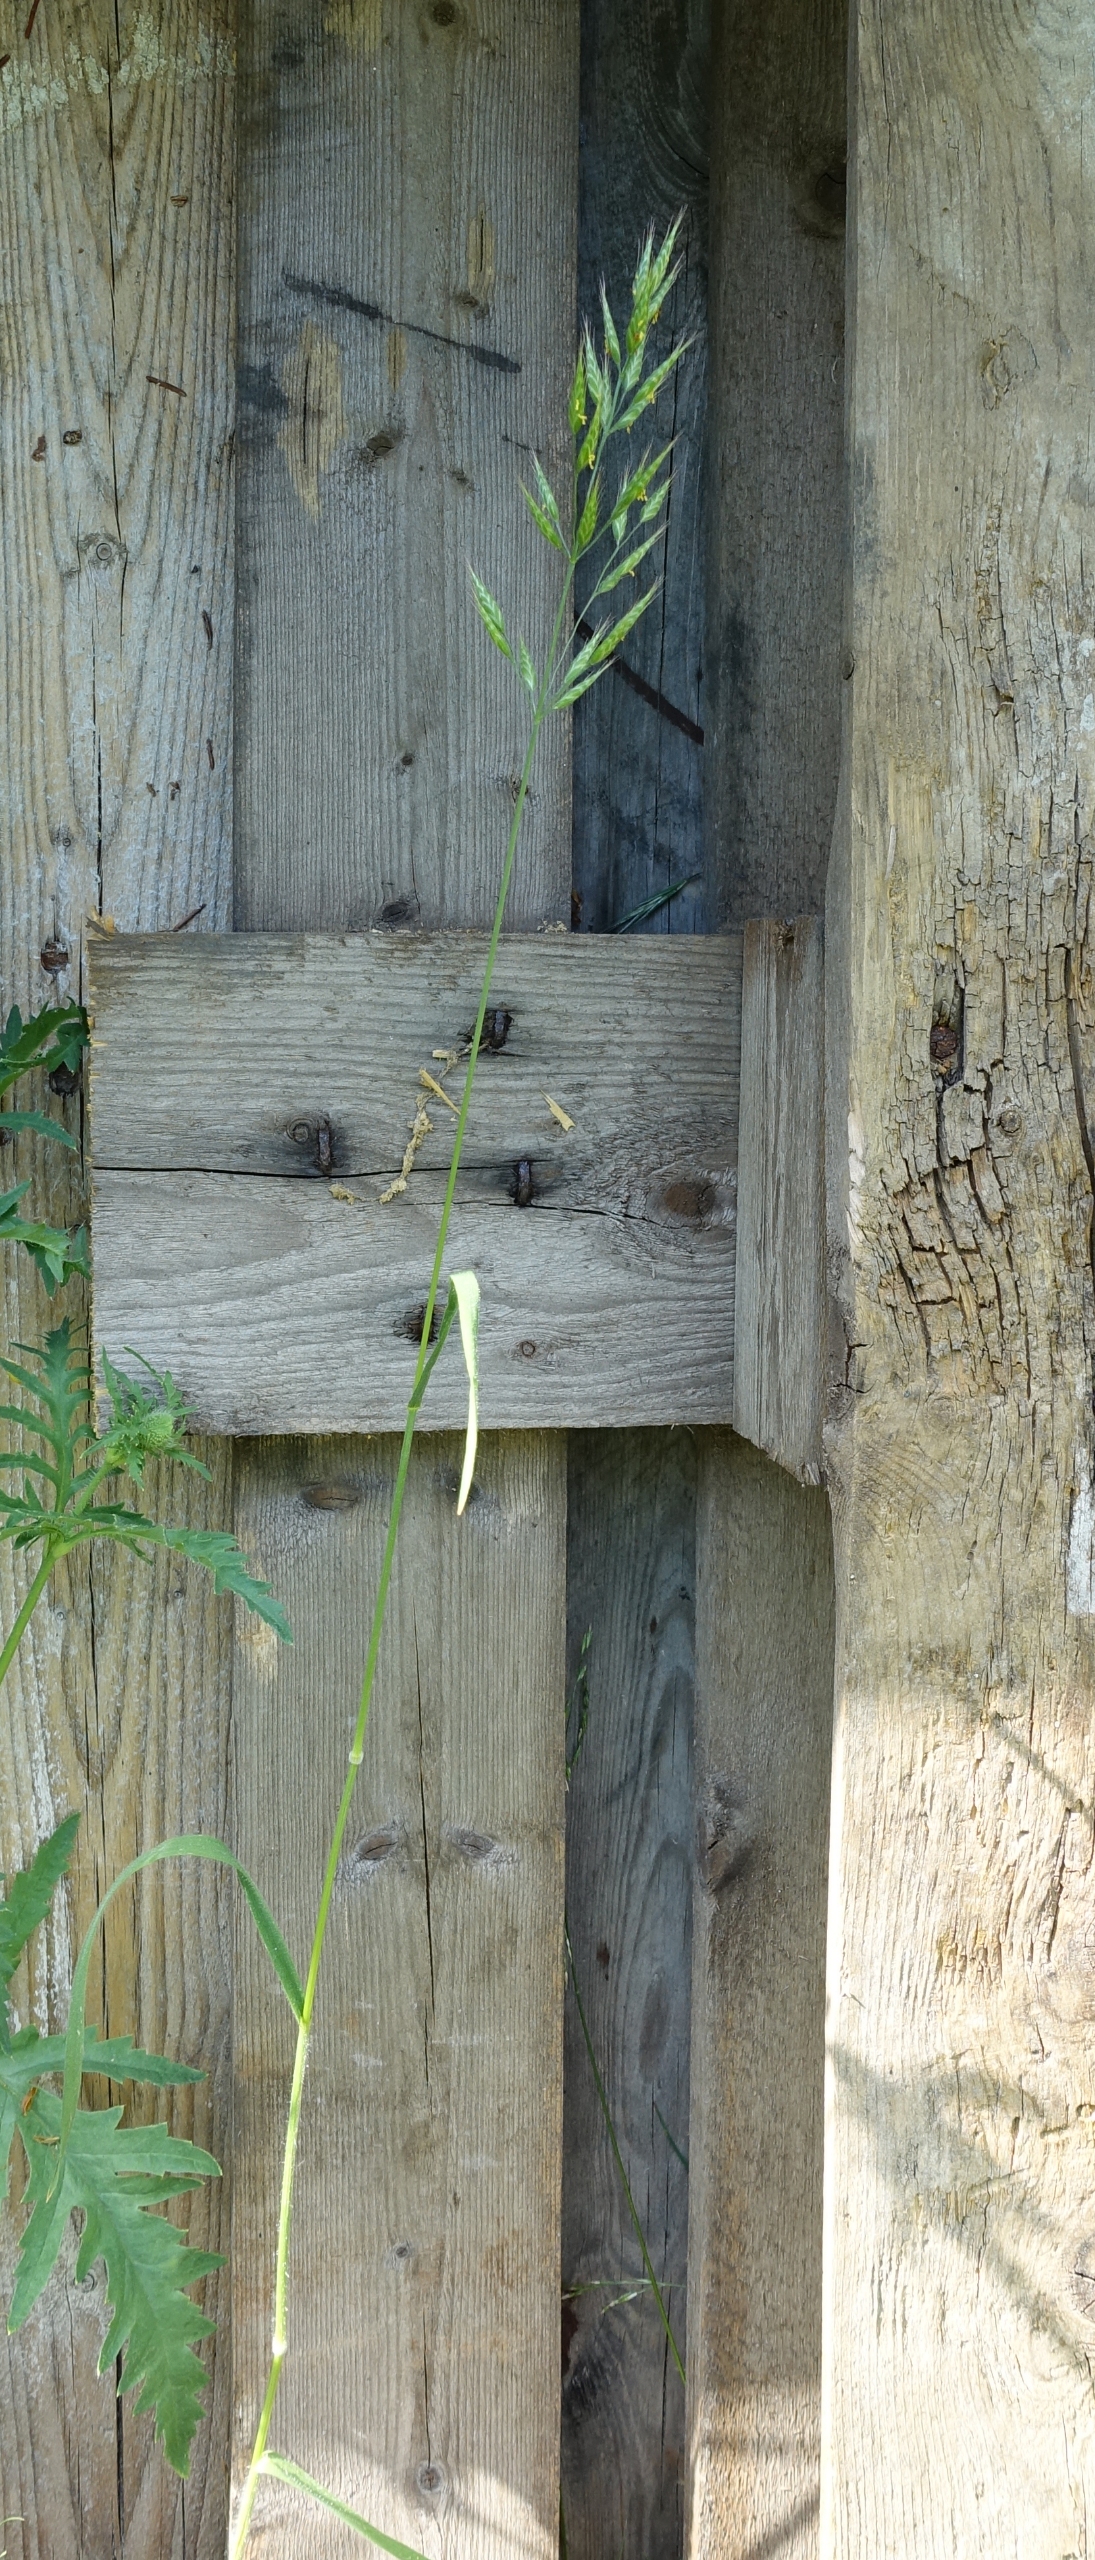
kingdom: Plantae
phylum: Tracheophyta
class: Liliopsida
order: Poales
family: Poaceae
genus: Bromus
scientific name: Bromus hordeaceus
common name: Blød hejre
